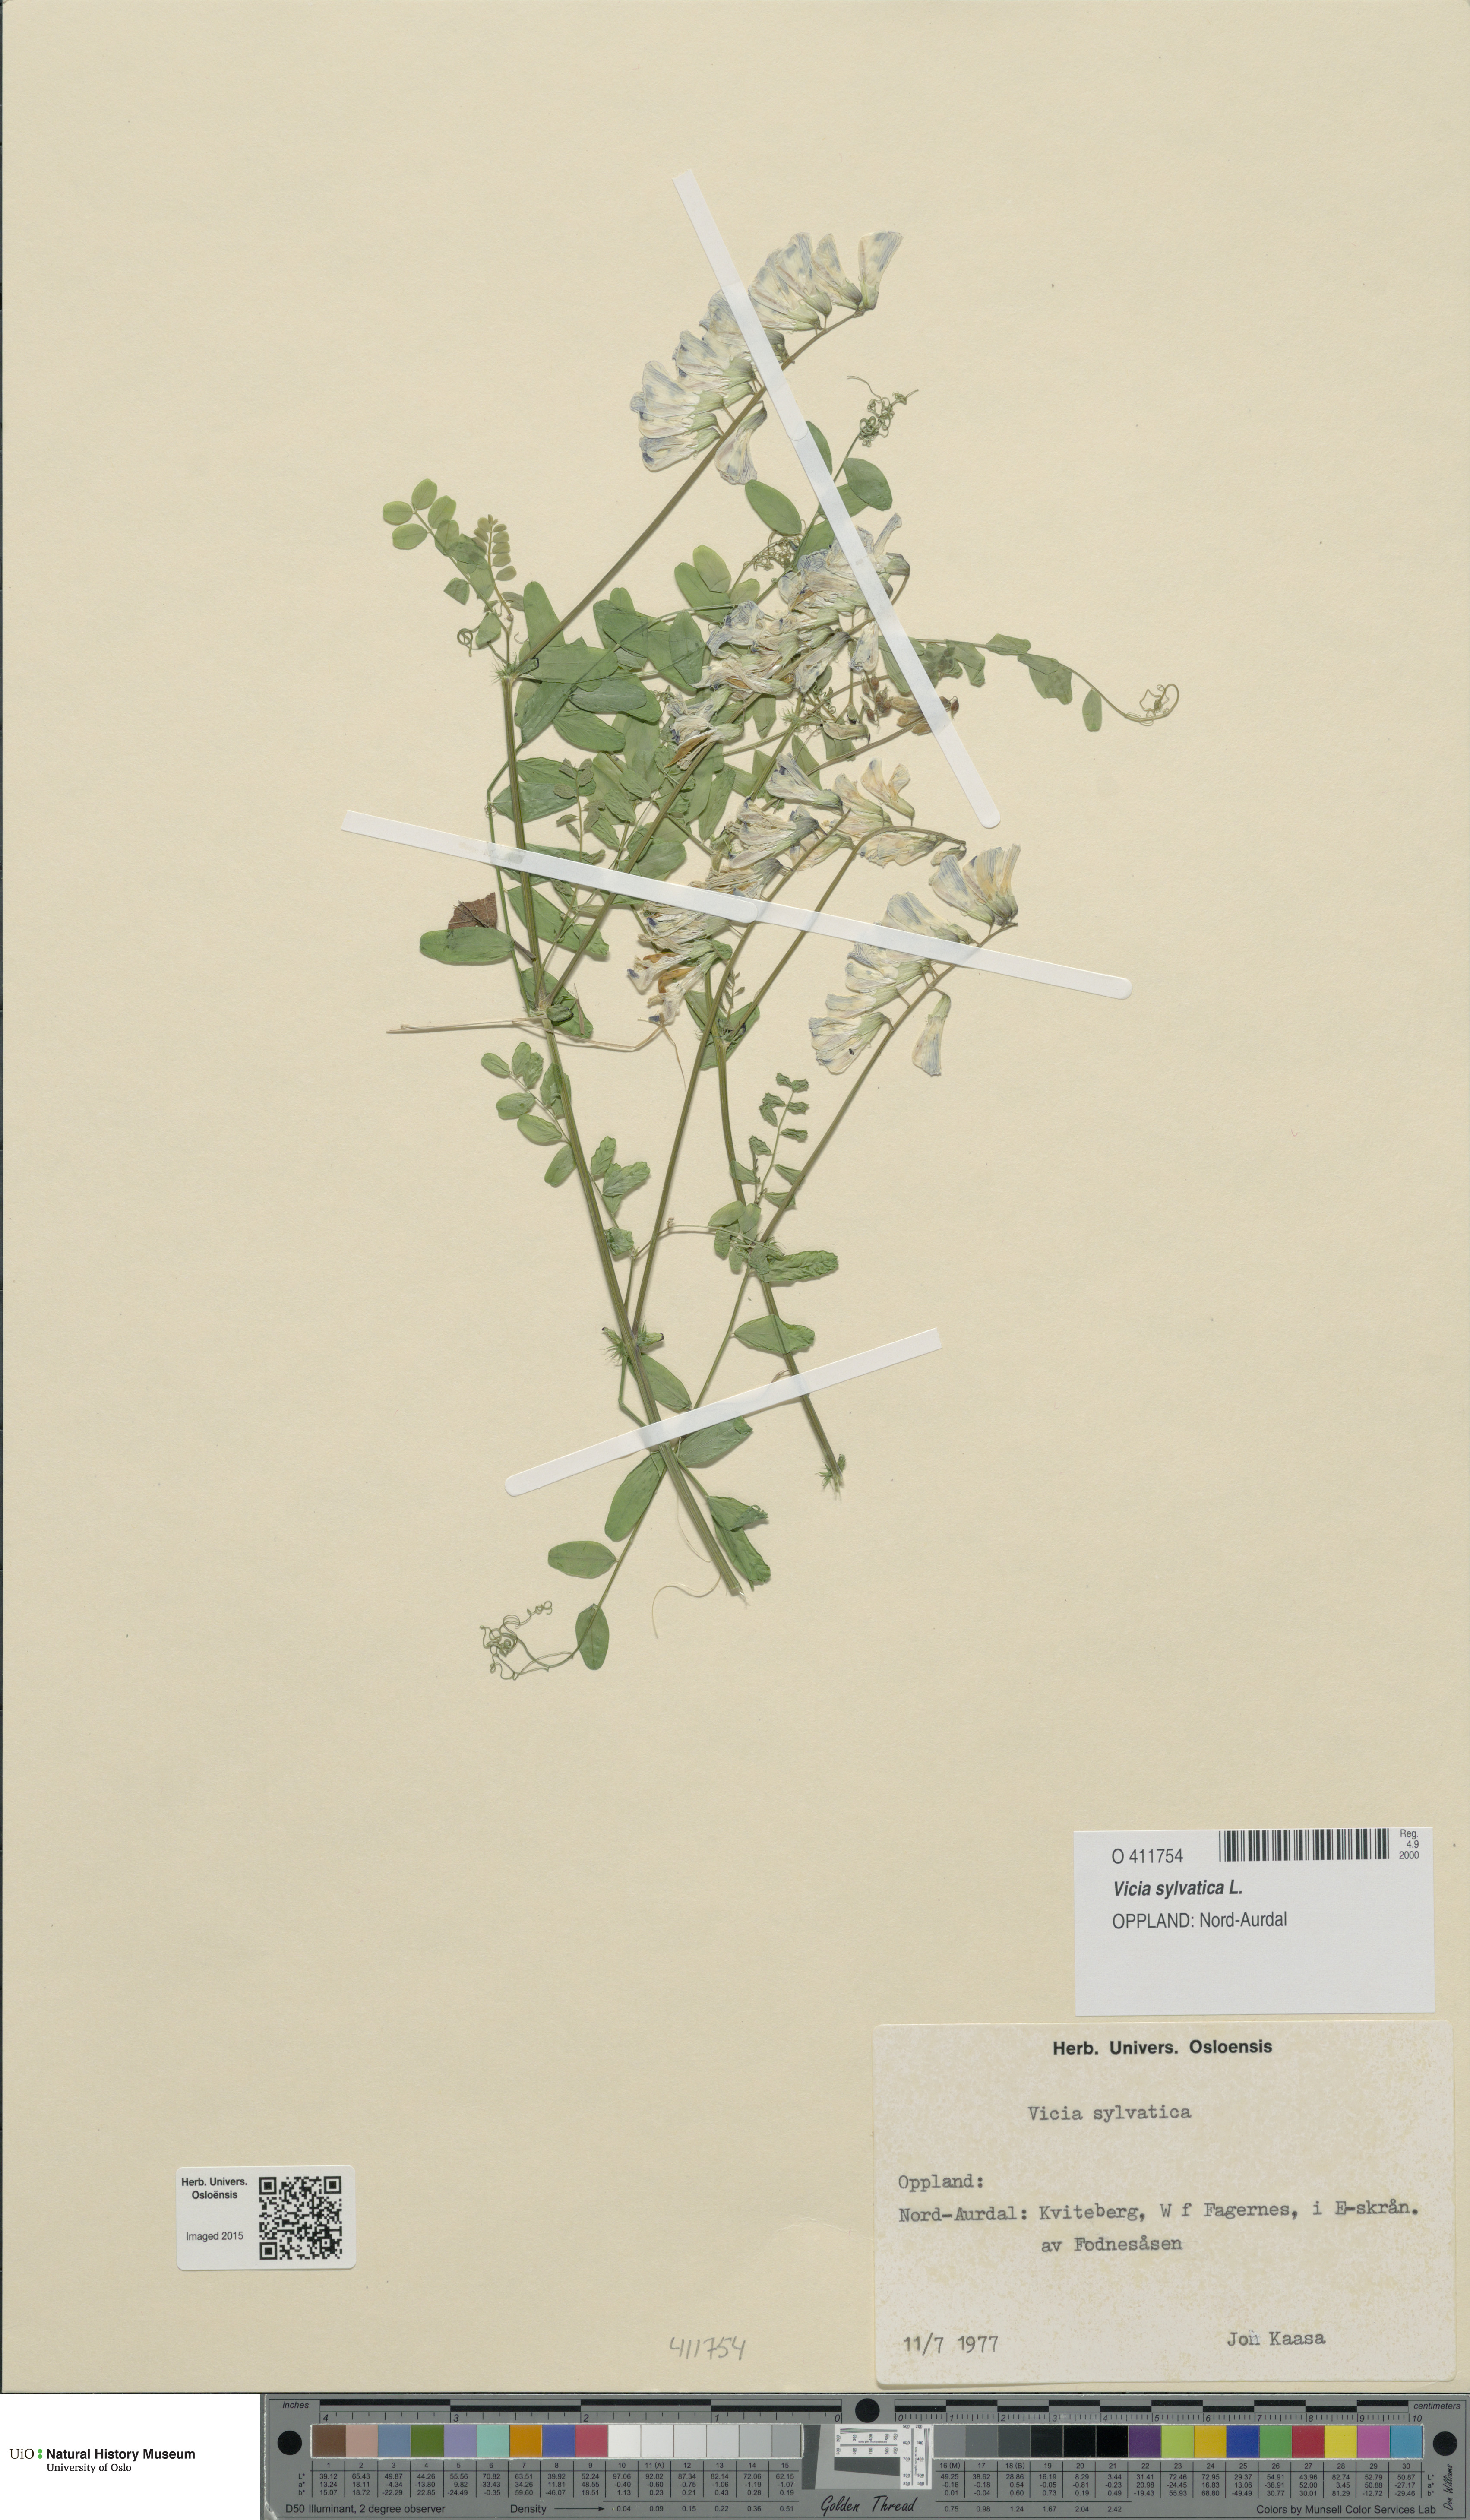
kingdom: Plantae
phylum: Tracheophyta
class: Magnoliopsida
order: Fabales
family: Fabaceae
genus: Vicia
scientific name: Vicia sylvatica
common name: Wood vetch
